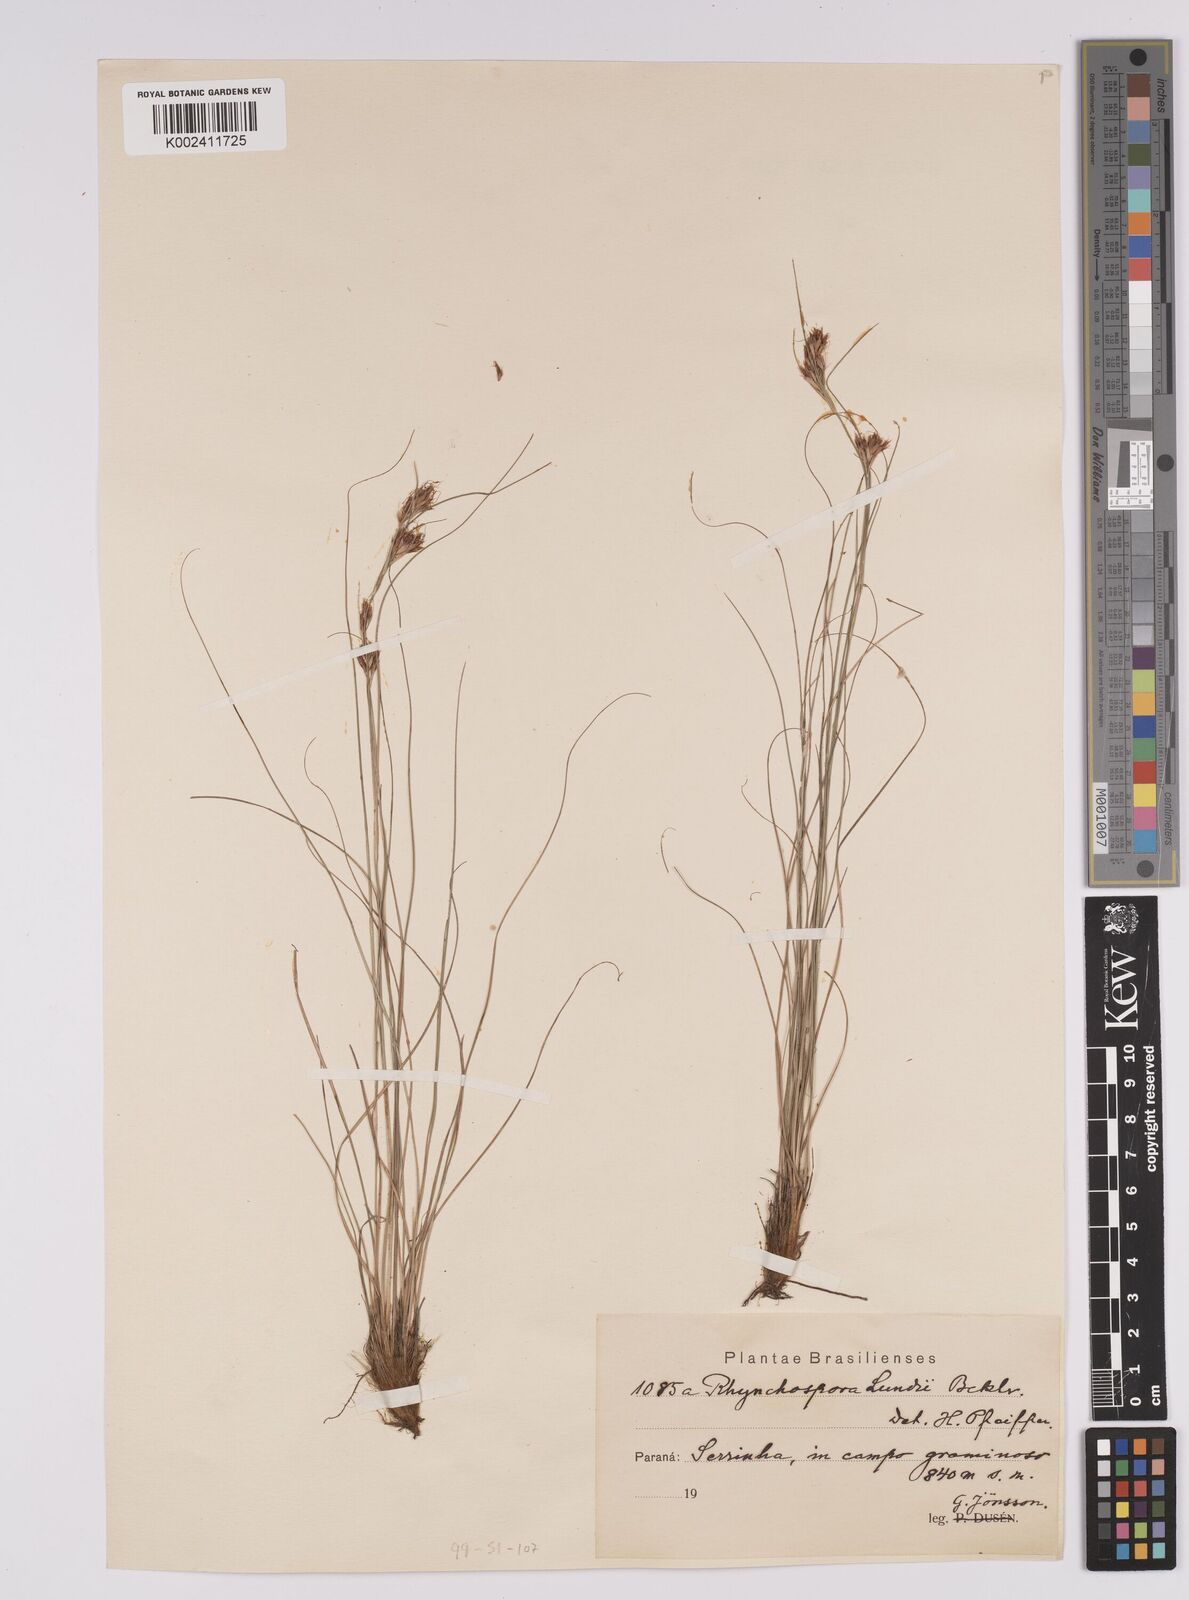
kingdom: Plantae
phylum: Tracheophyta
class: Liliopsida
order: Poales
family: Cyperaceae
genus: Rhynchospora
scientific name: Rhynchospora confinis
